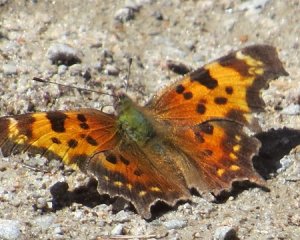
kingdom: Animalia
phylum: Arthropoda
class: Insecta
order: Lepidoptera
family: Nymphalidae
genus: Polygonia
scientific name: Polygonia faunus
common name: Green Comma
